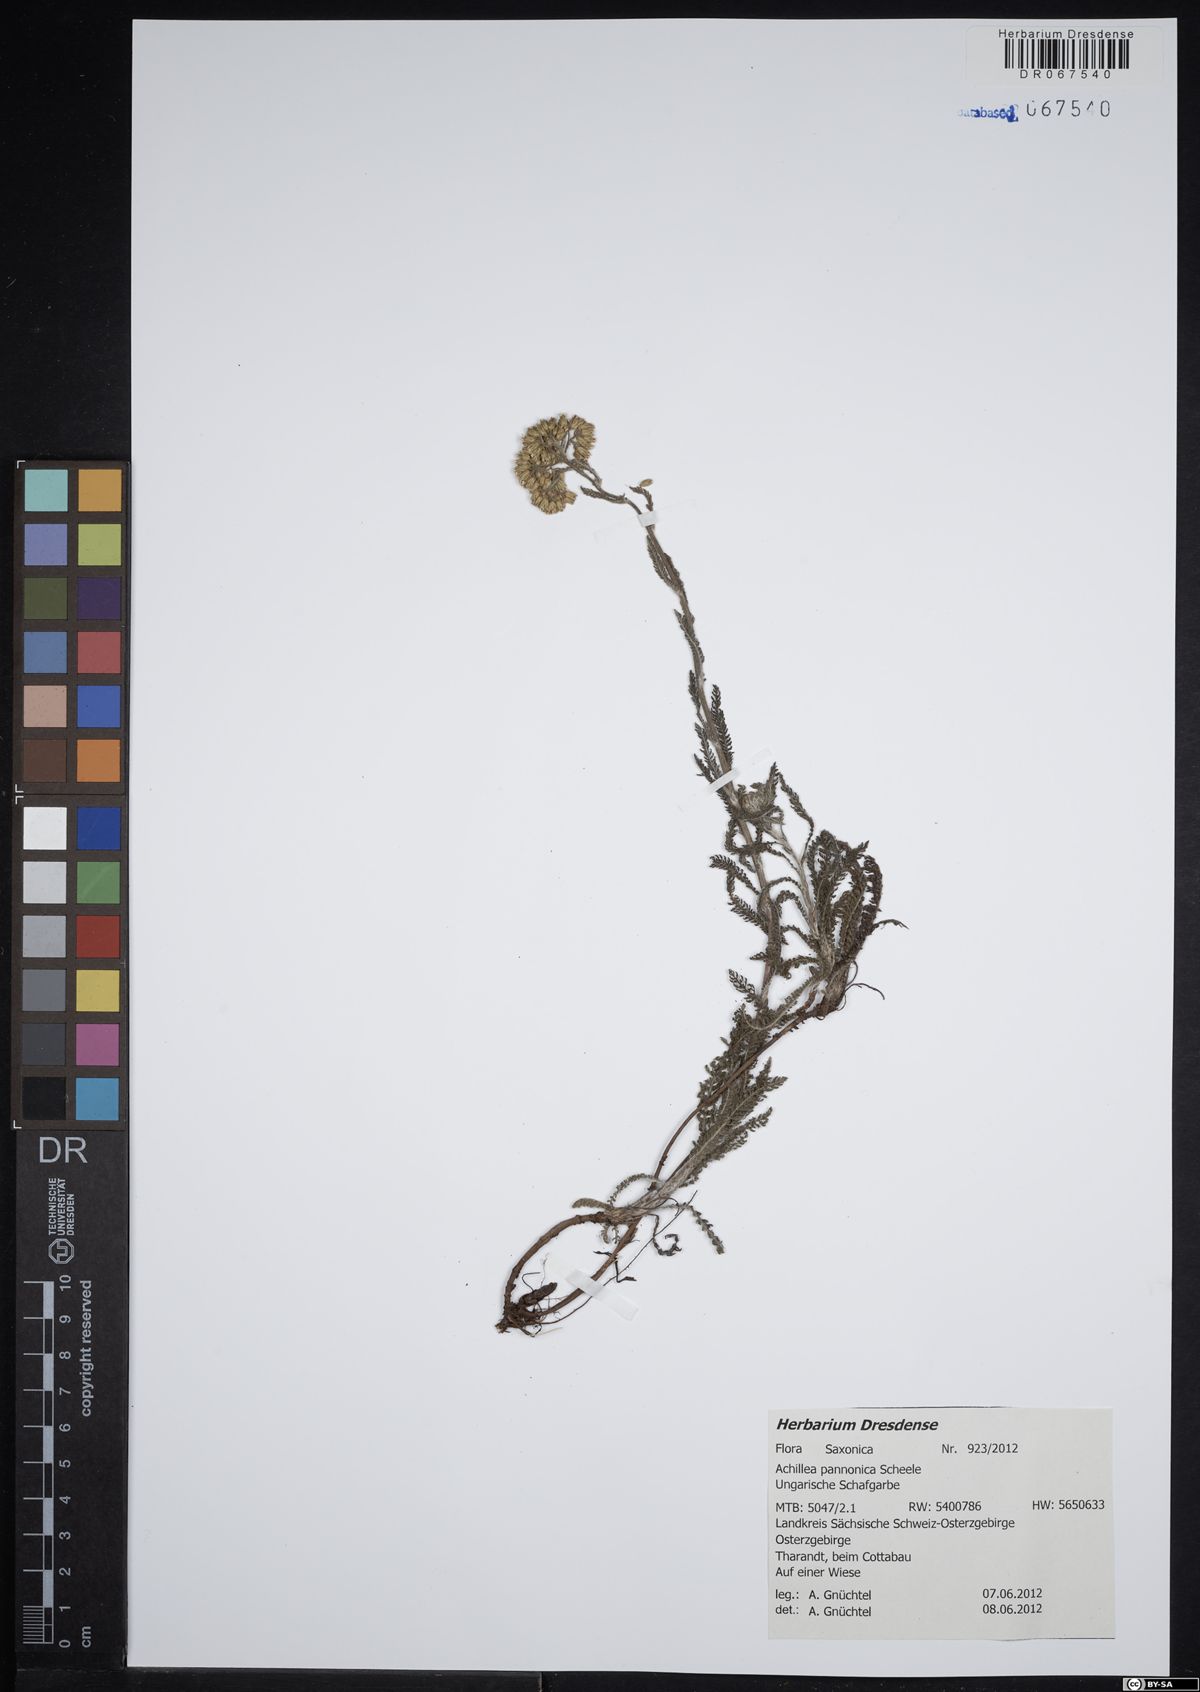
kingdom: Plantae
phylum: Tracheophyta
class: Magnoliopsida
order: Asterales
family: Asteraceae
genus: Achillea
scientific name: Achillea pannonica
